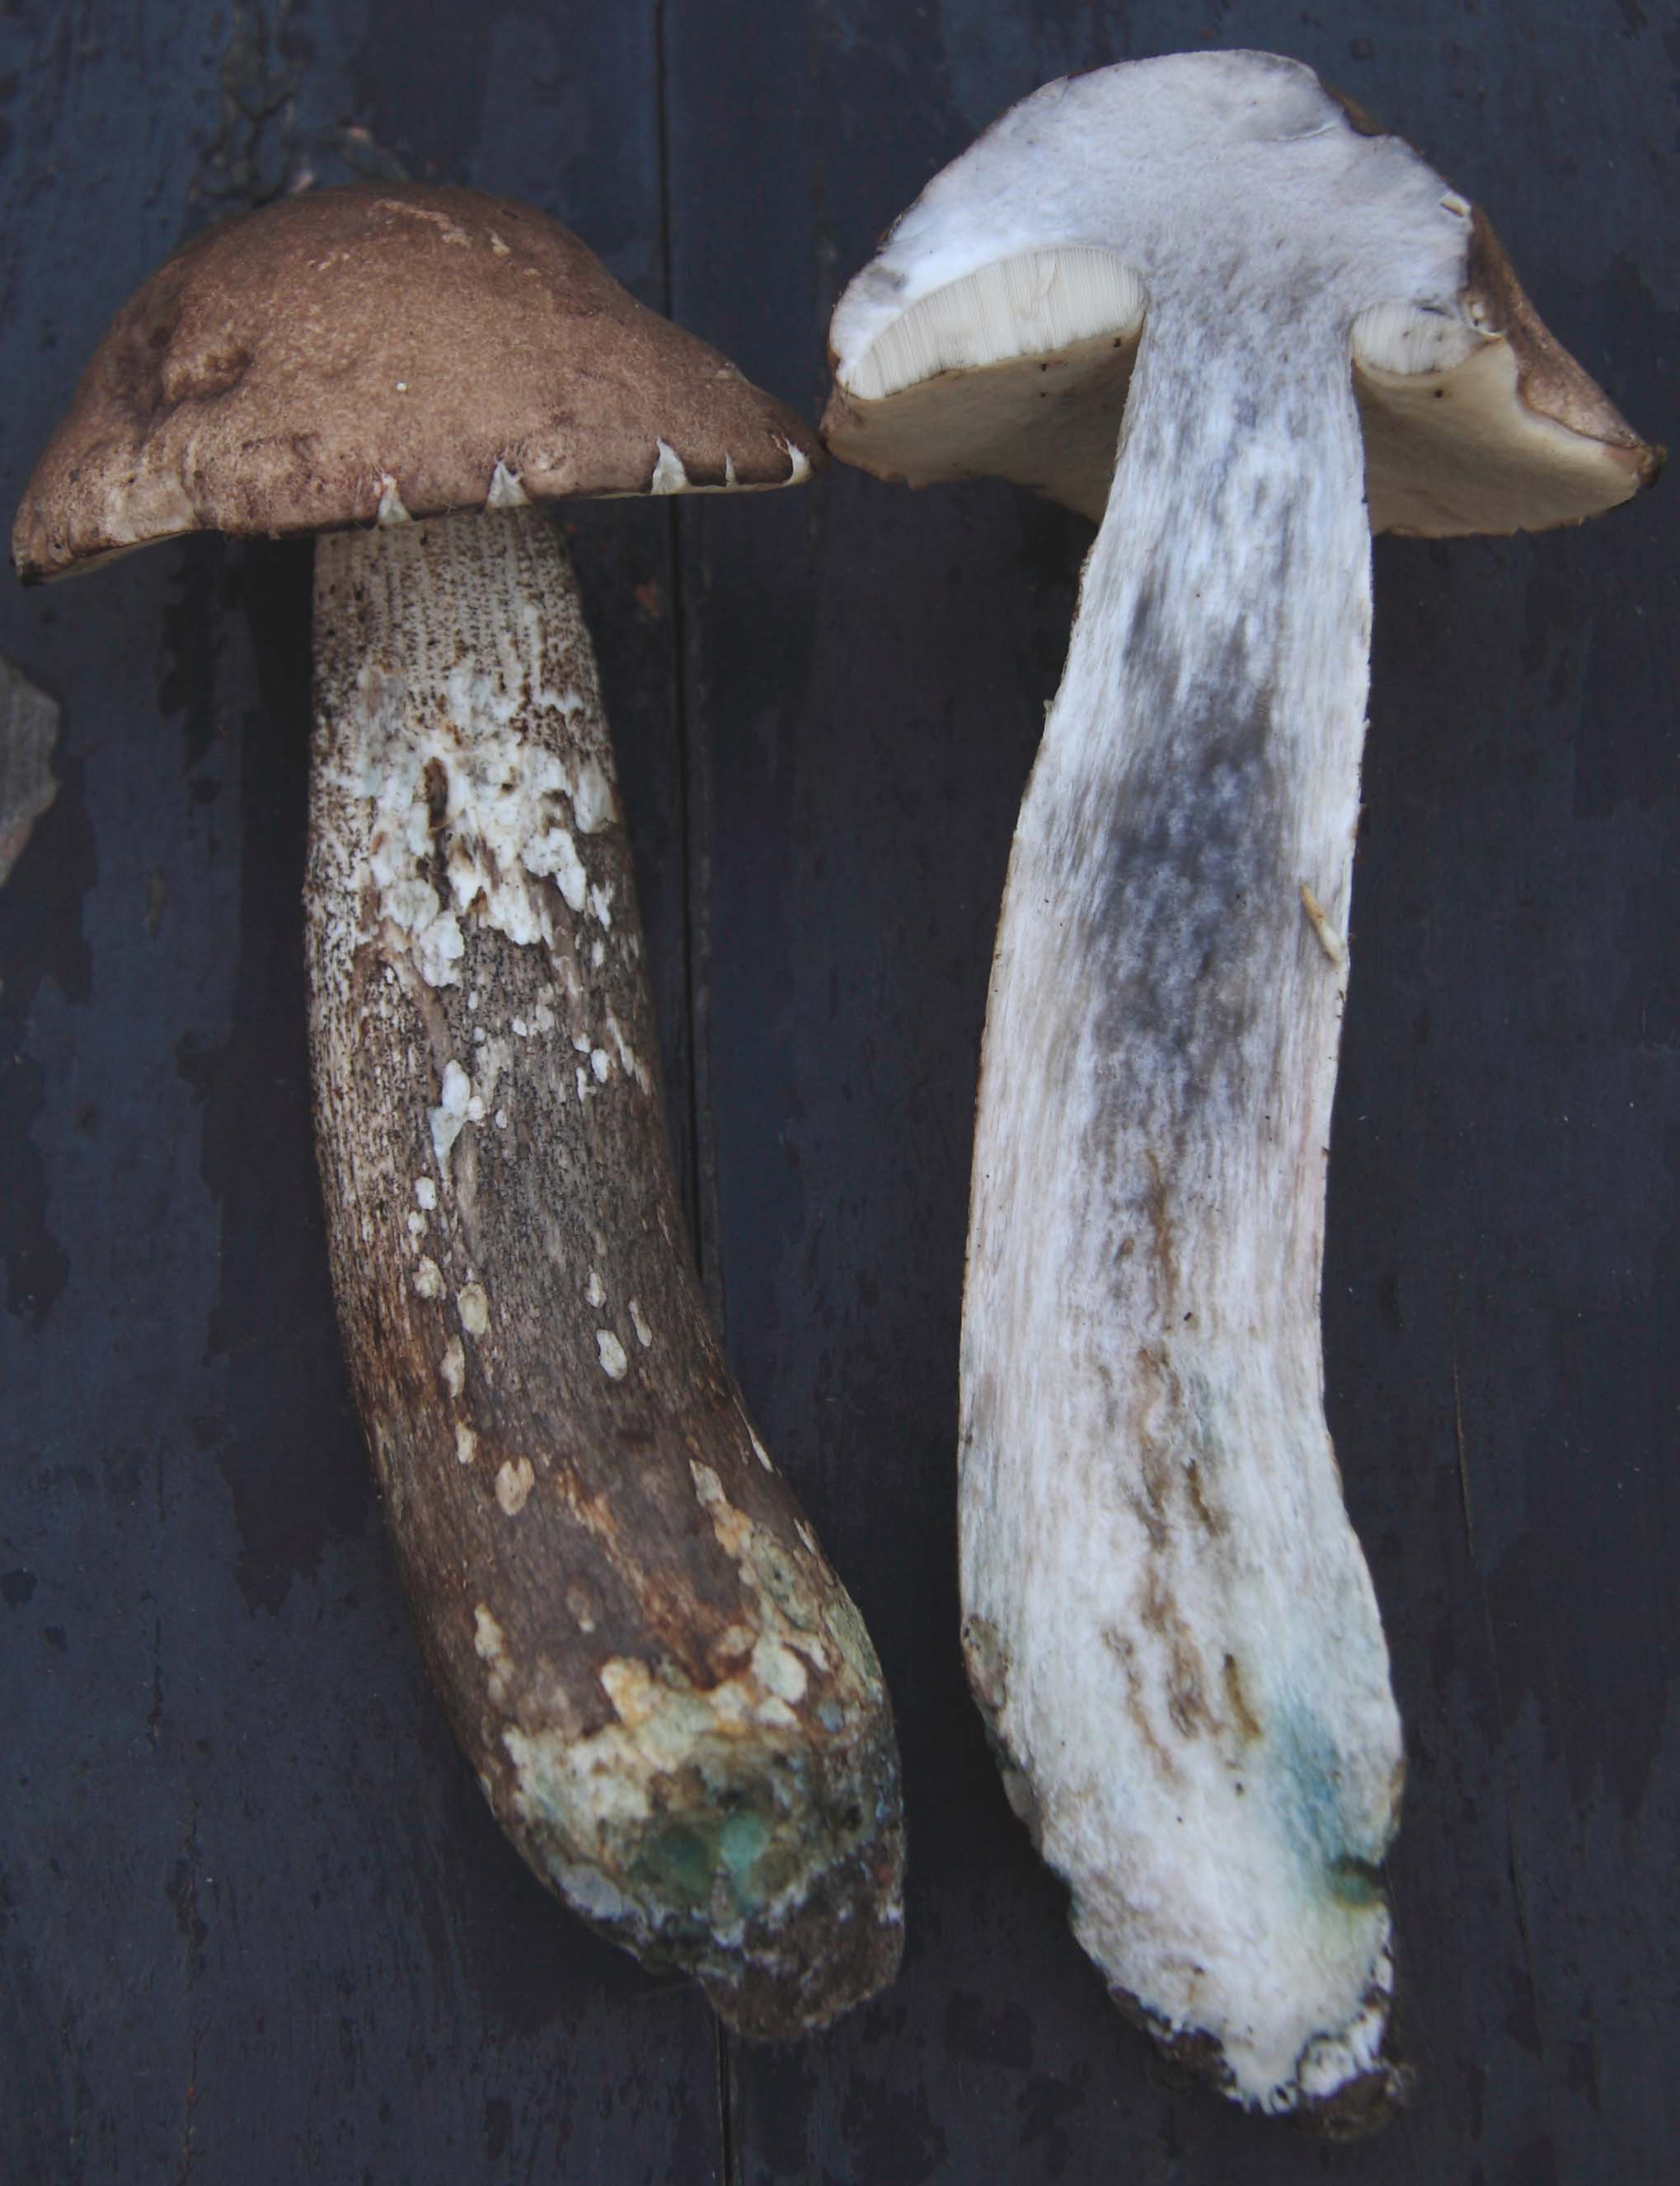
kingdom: Fungi
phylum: Basidiomycota
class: Agaricomycetes
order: Hymenochaetales
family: Hymenochaetaceae
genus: Phellinus
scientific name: Phellinus populicola
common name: poppel-ildporesvamp
